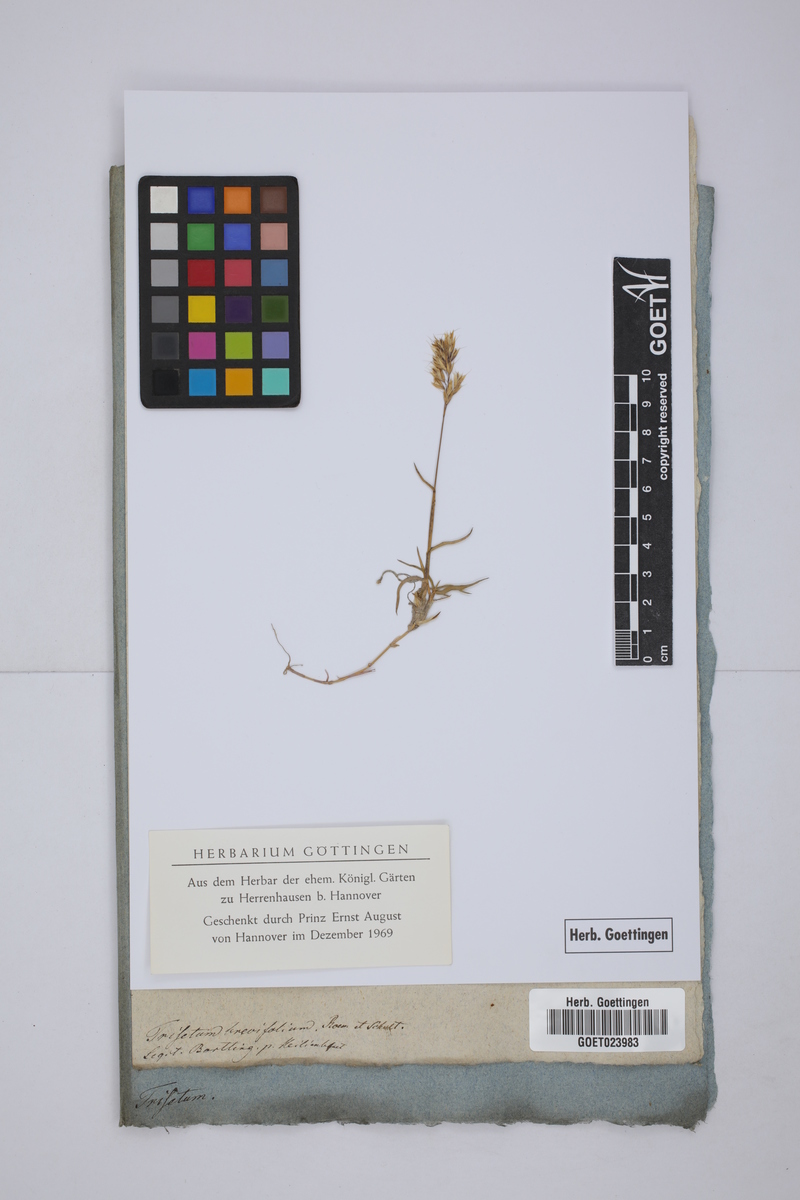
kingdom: Plantae
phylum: Tracheophyta
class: Liliopsida
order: Poales
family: Poaceae
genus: Acrospelion
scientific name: Acrospelion distichophyllum
